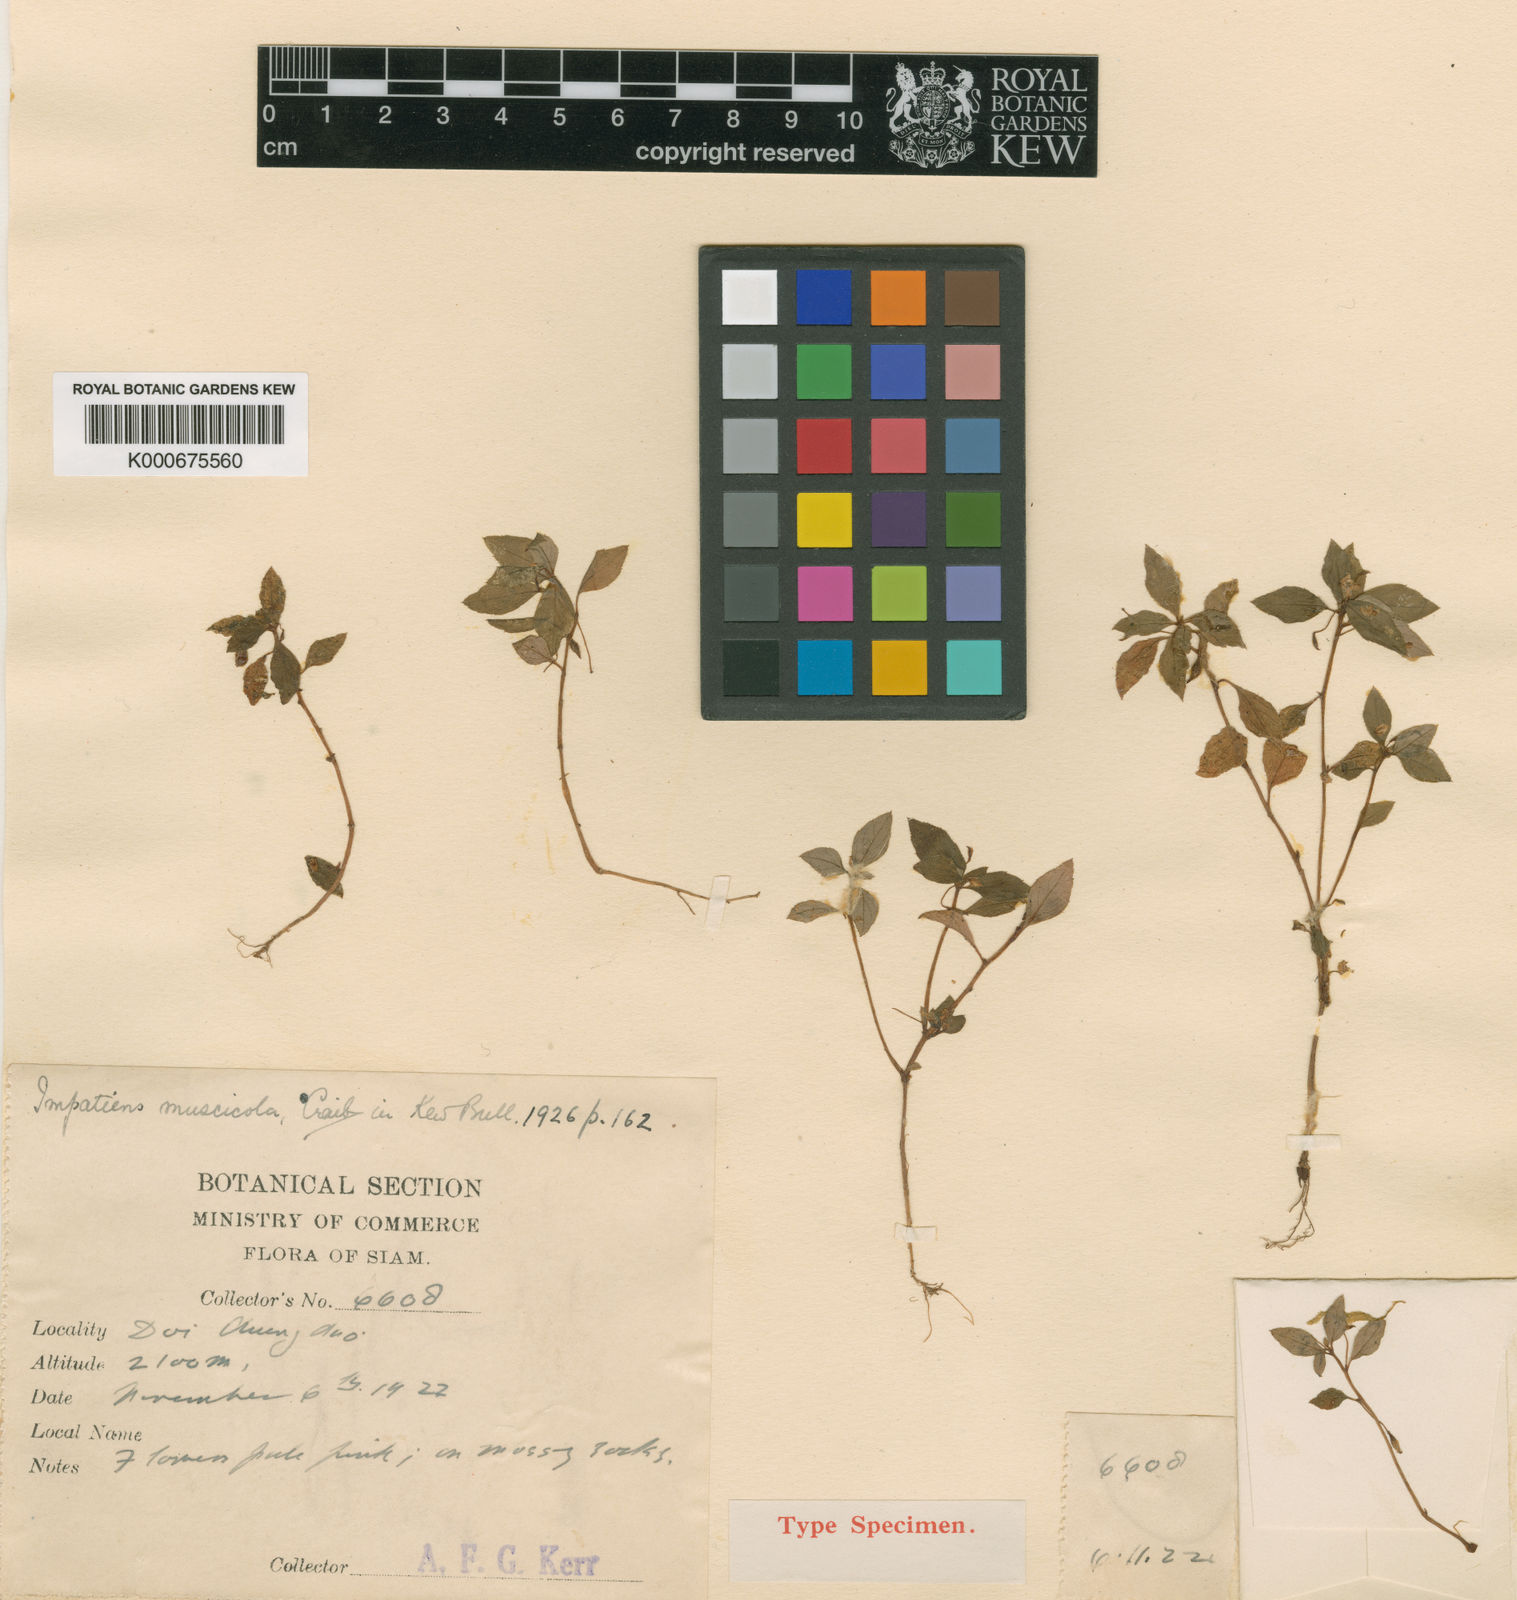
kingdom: Plantae
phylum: Tracheophyta
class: Magnoliopsida
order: Ericales
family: Balsaminaceae
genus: Impatiens
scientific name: Impatiens muscicola
